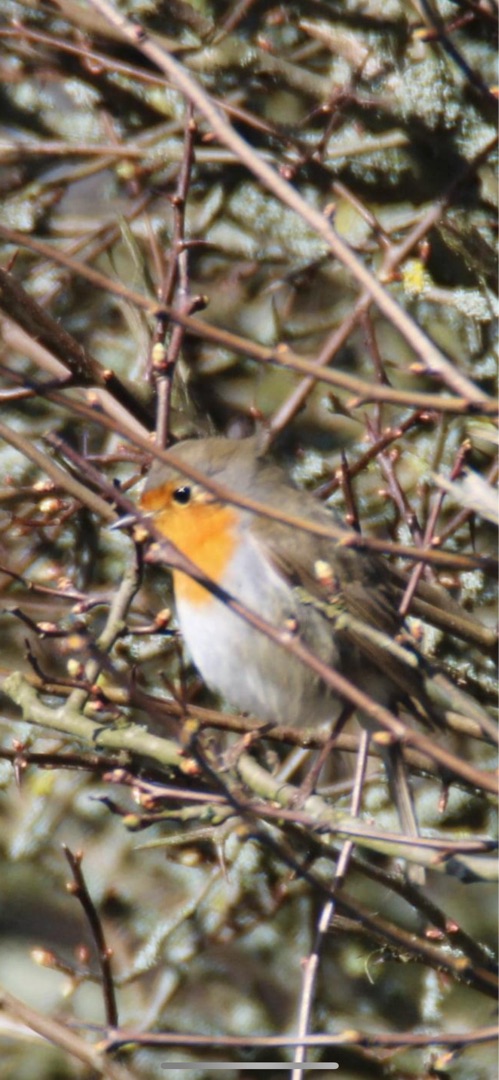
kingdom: Animalia
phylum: Chordata
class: Aves
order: Passeriformes
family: Muscicapidae
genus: Erithacus
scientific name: Erithacus rubecula
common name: Rødhals/rødkælk
